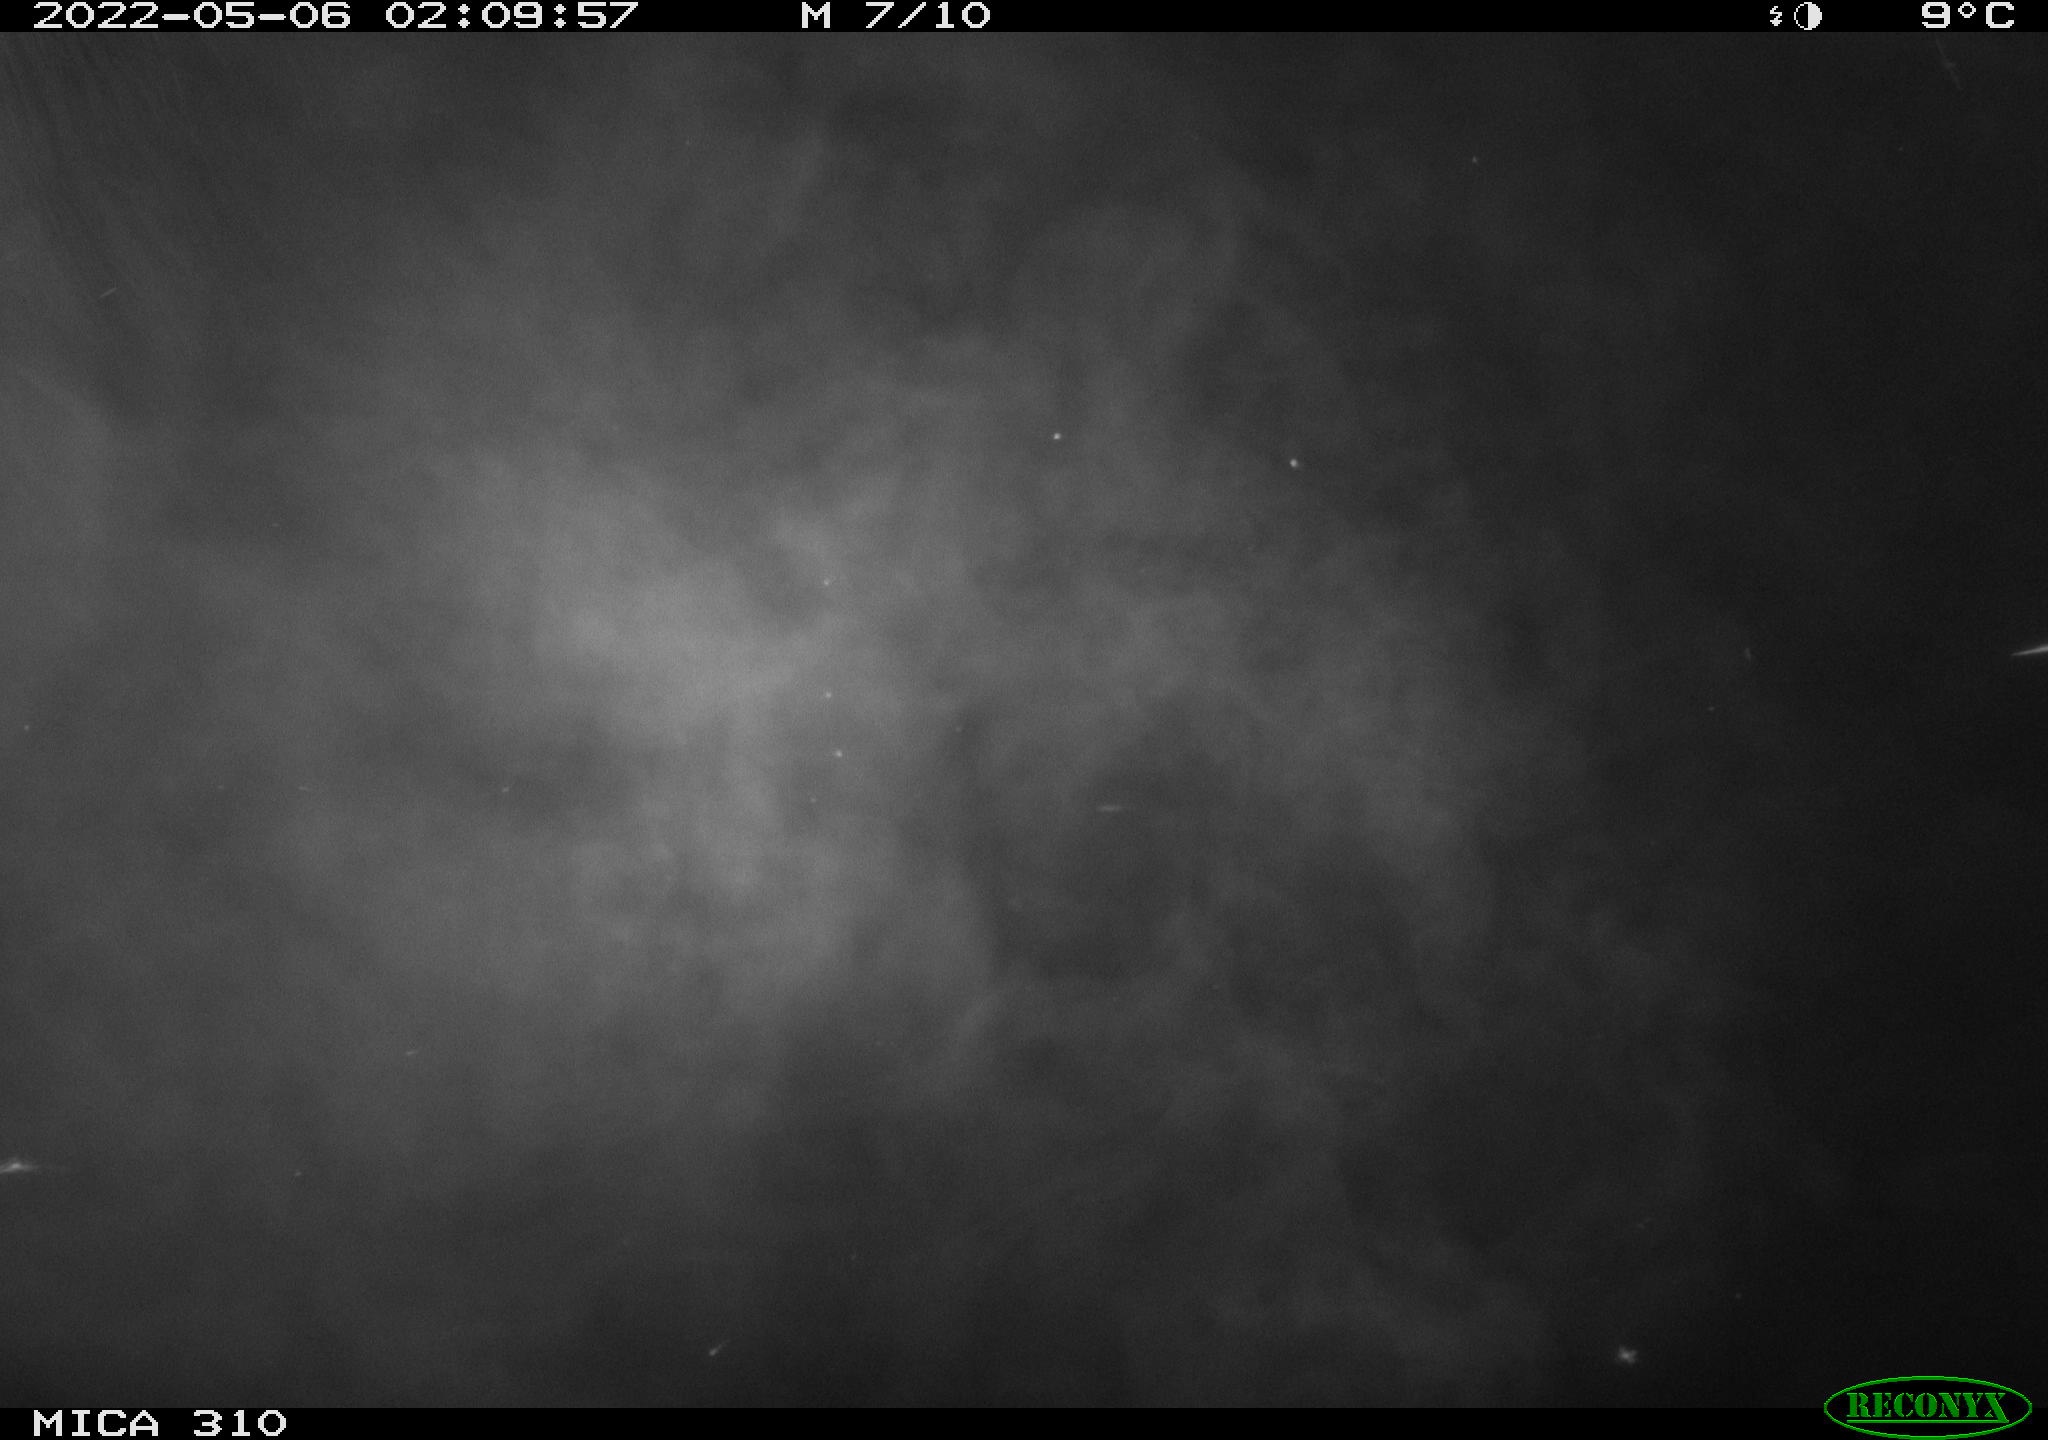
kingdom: Animalia
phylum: Chordata
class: Aves
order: Anseriformes
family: Anatidae
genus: Anas
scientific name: Anas platyrhynchos
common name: Mallard
